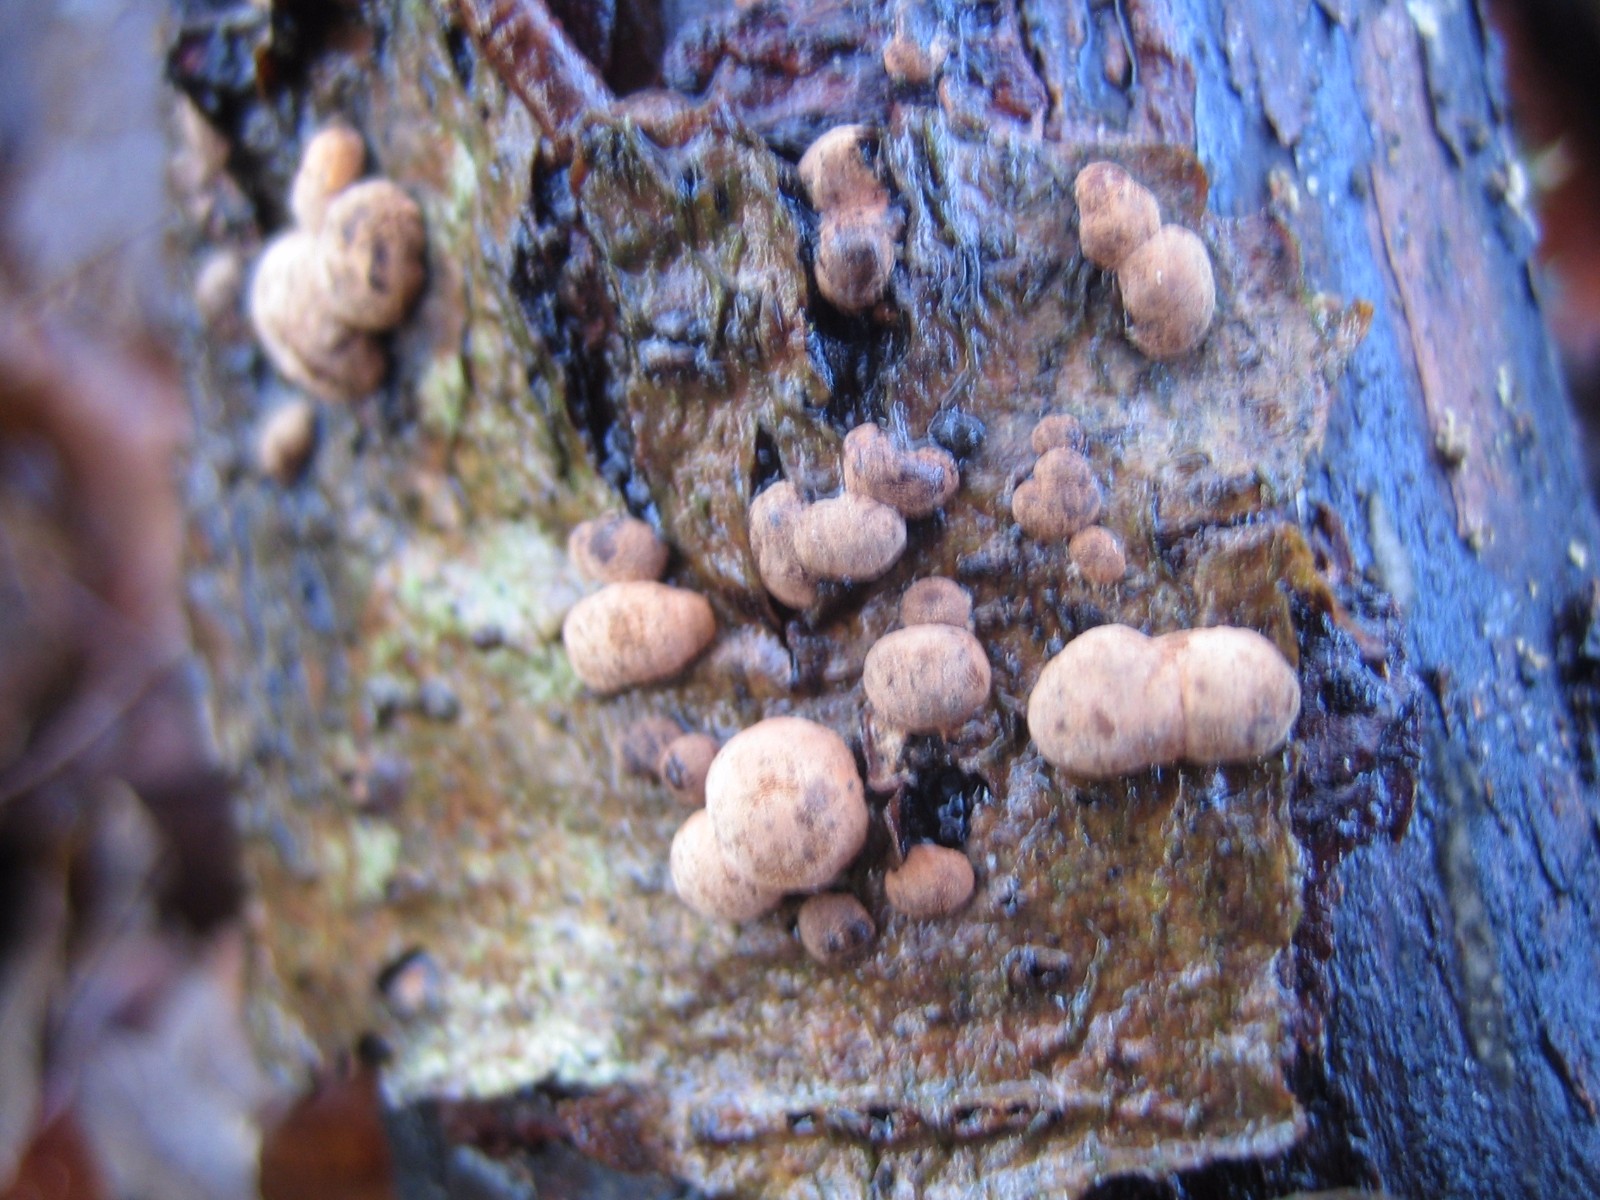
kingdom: Fungi
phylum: Ascomycota
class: Sordariomycetes
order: Xylariales
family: Hypoxylaceae
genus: Hypoxylon
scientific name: Hypoxylon
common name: kulbær
